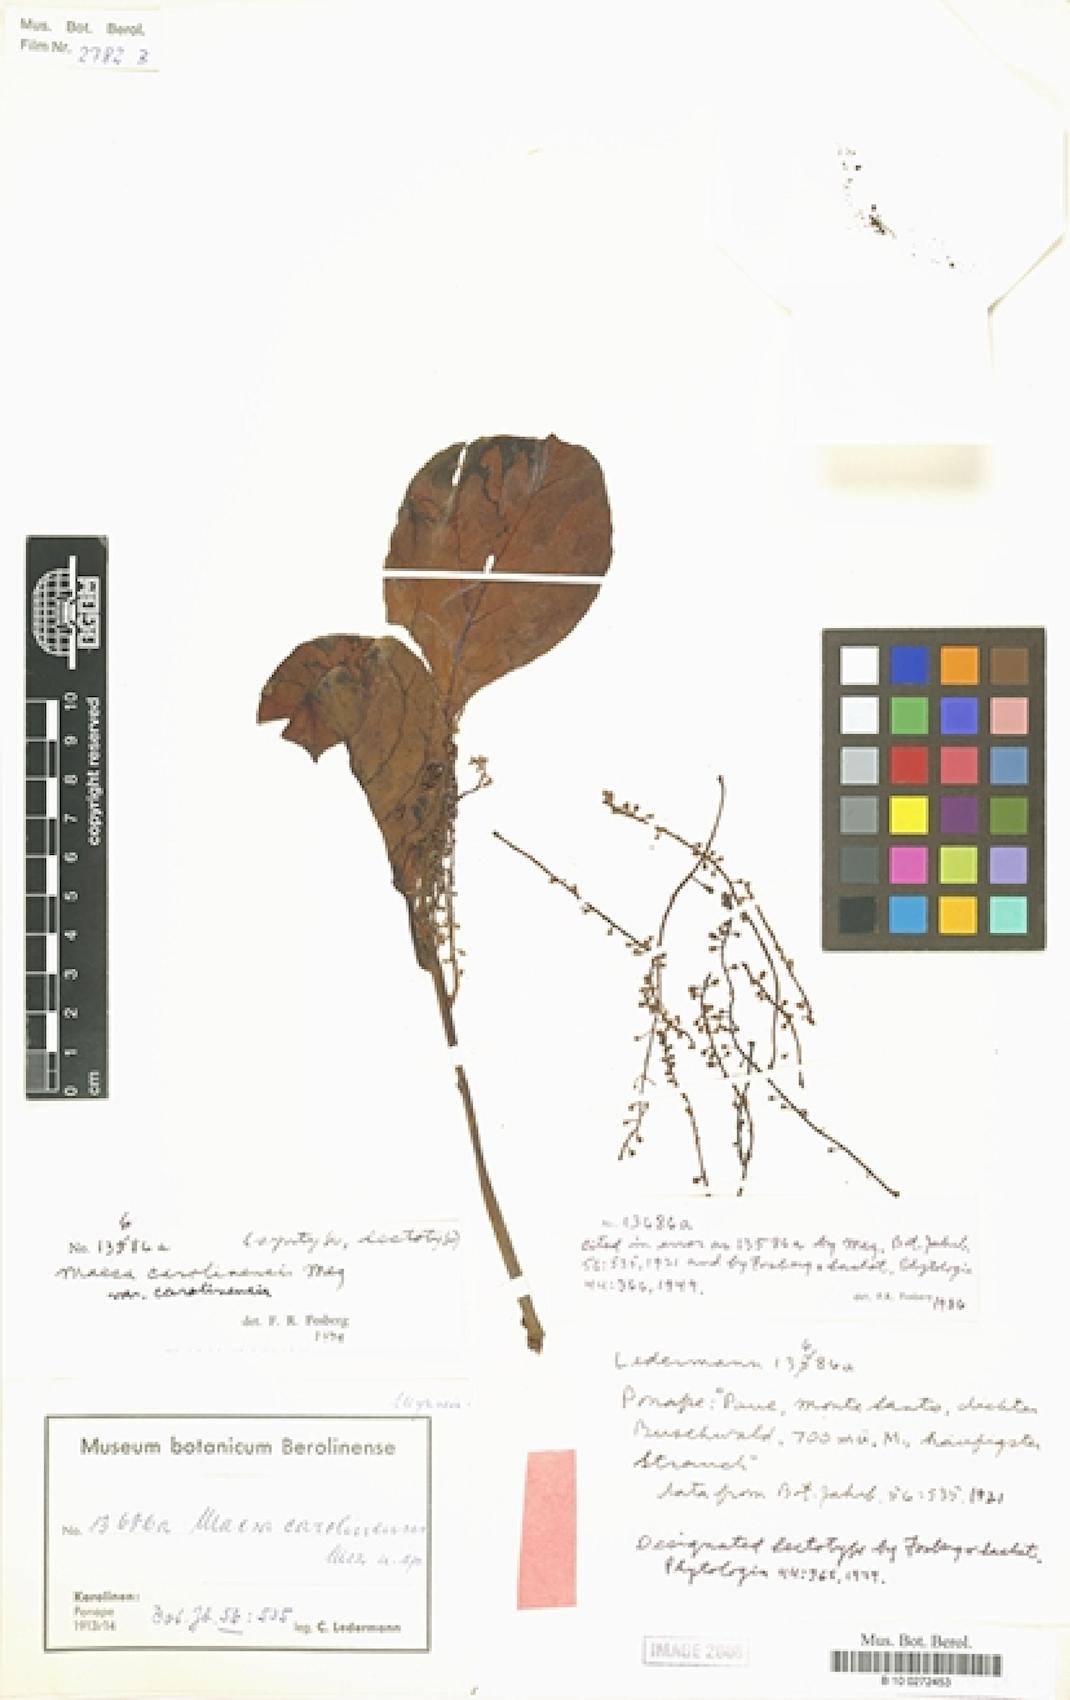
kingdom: Plantae
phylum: Tracheophyta
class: Magnoliopsida
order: Ericales
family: Primulaceae
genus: Maesa
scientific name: Maesa carolinensis
